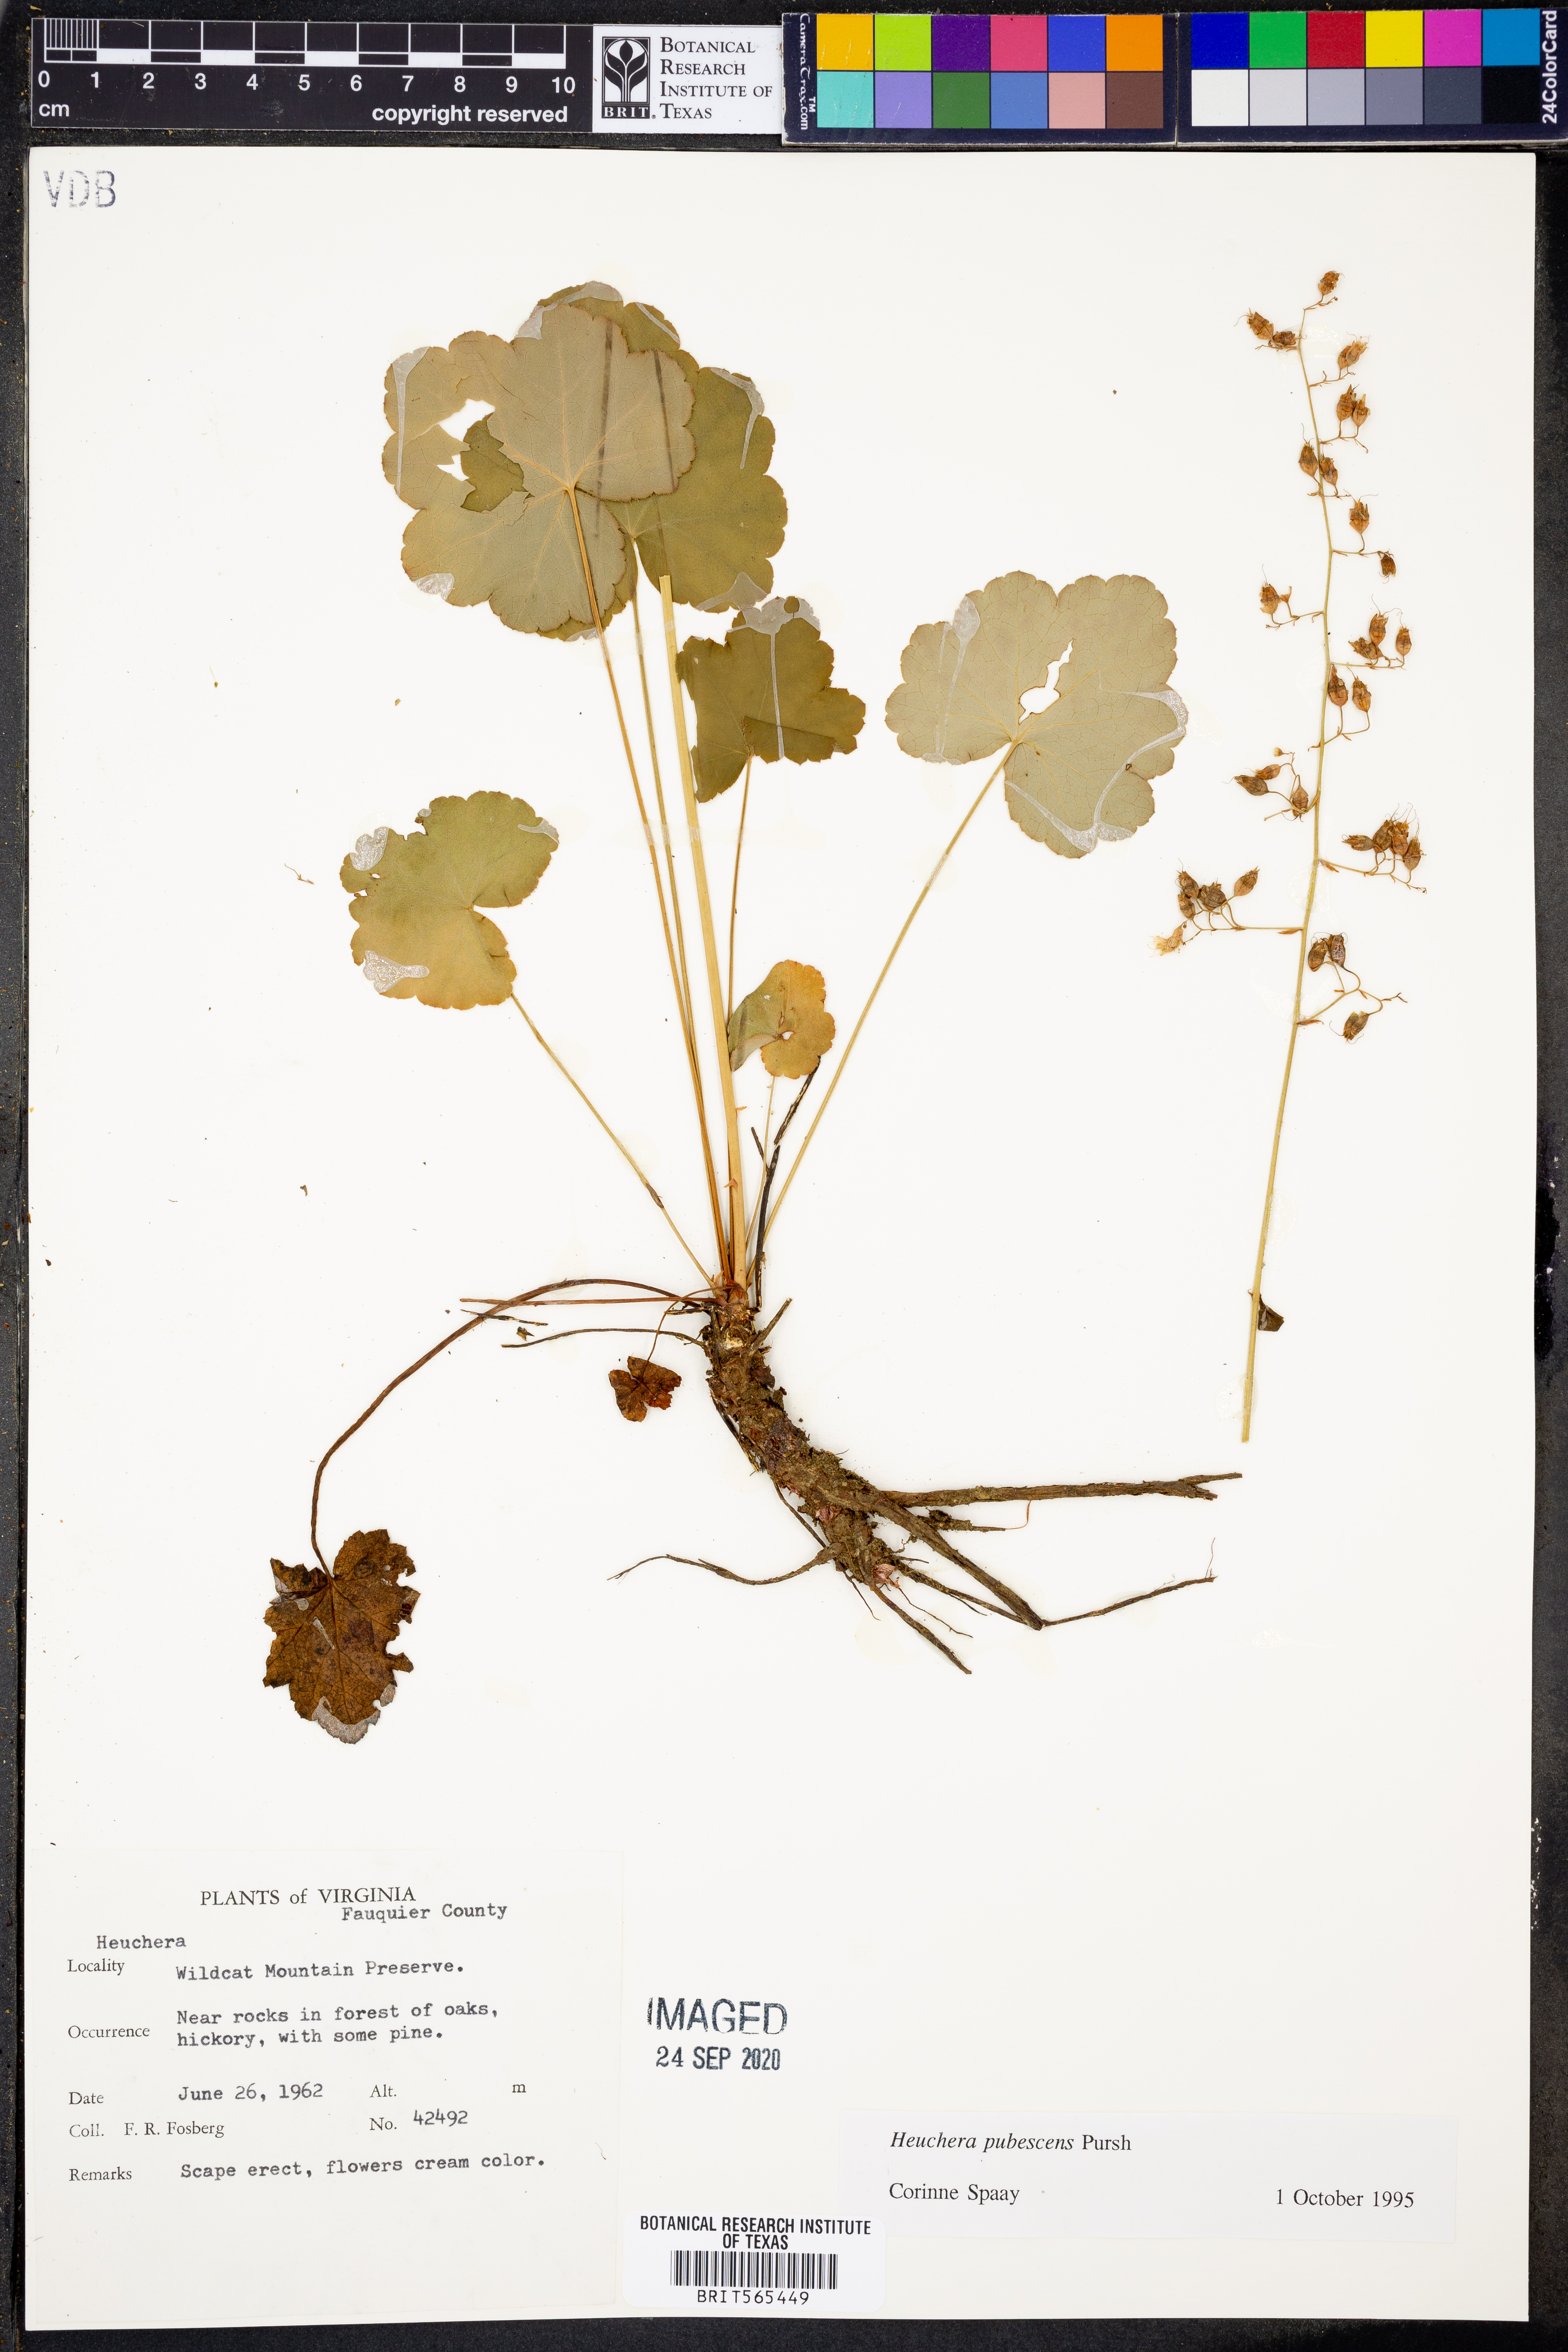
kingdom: Plantae
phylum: Tracheophyta
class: Magnoliopsida
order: Saxifragales
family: Saxifragaceae
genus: Heuchera
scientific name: Heuchera pubescens
